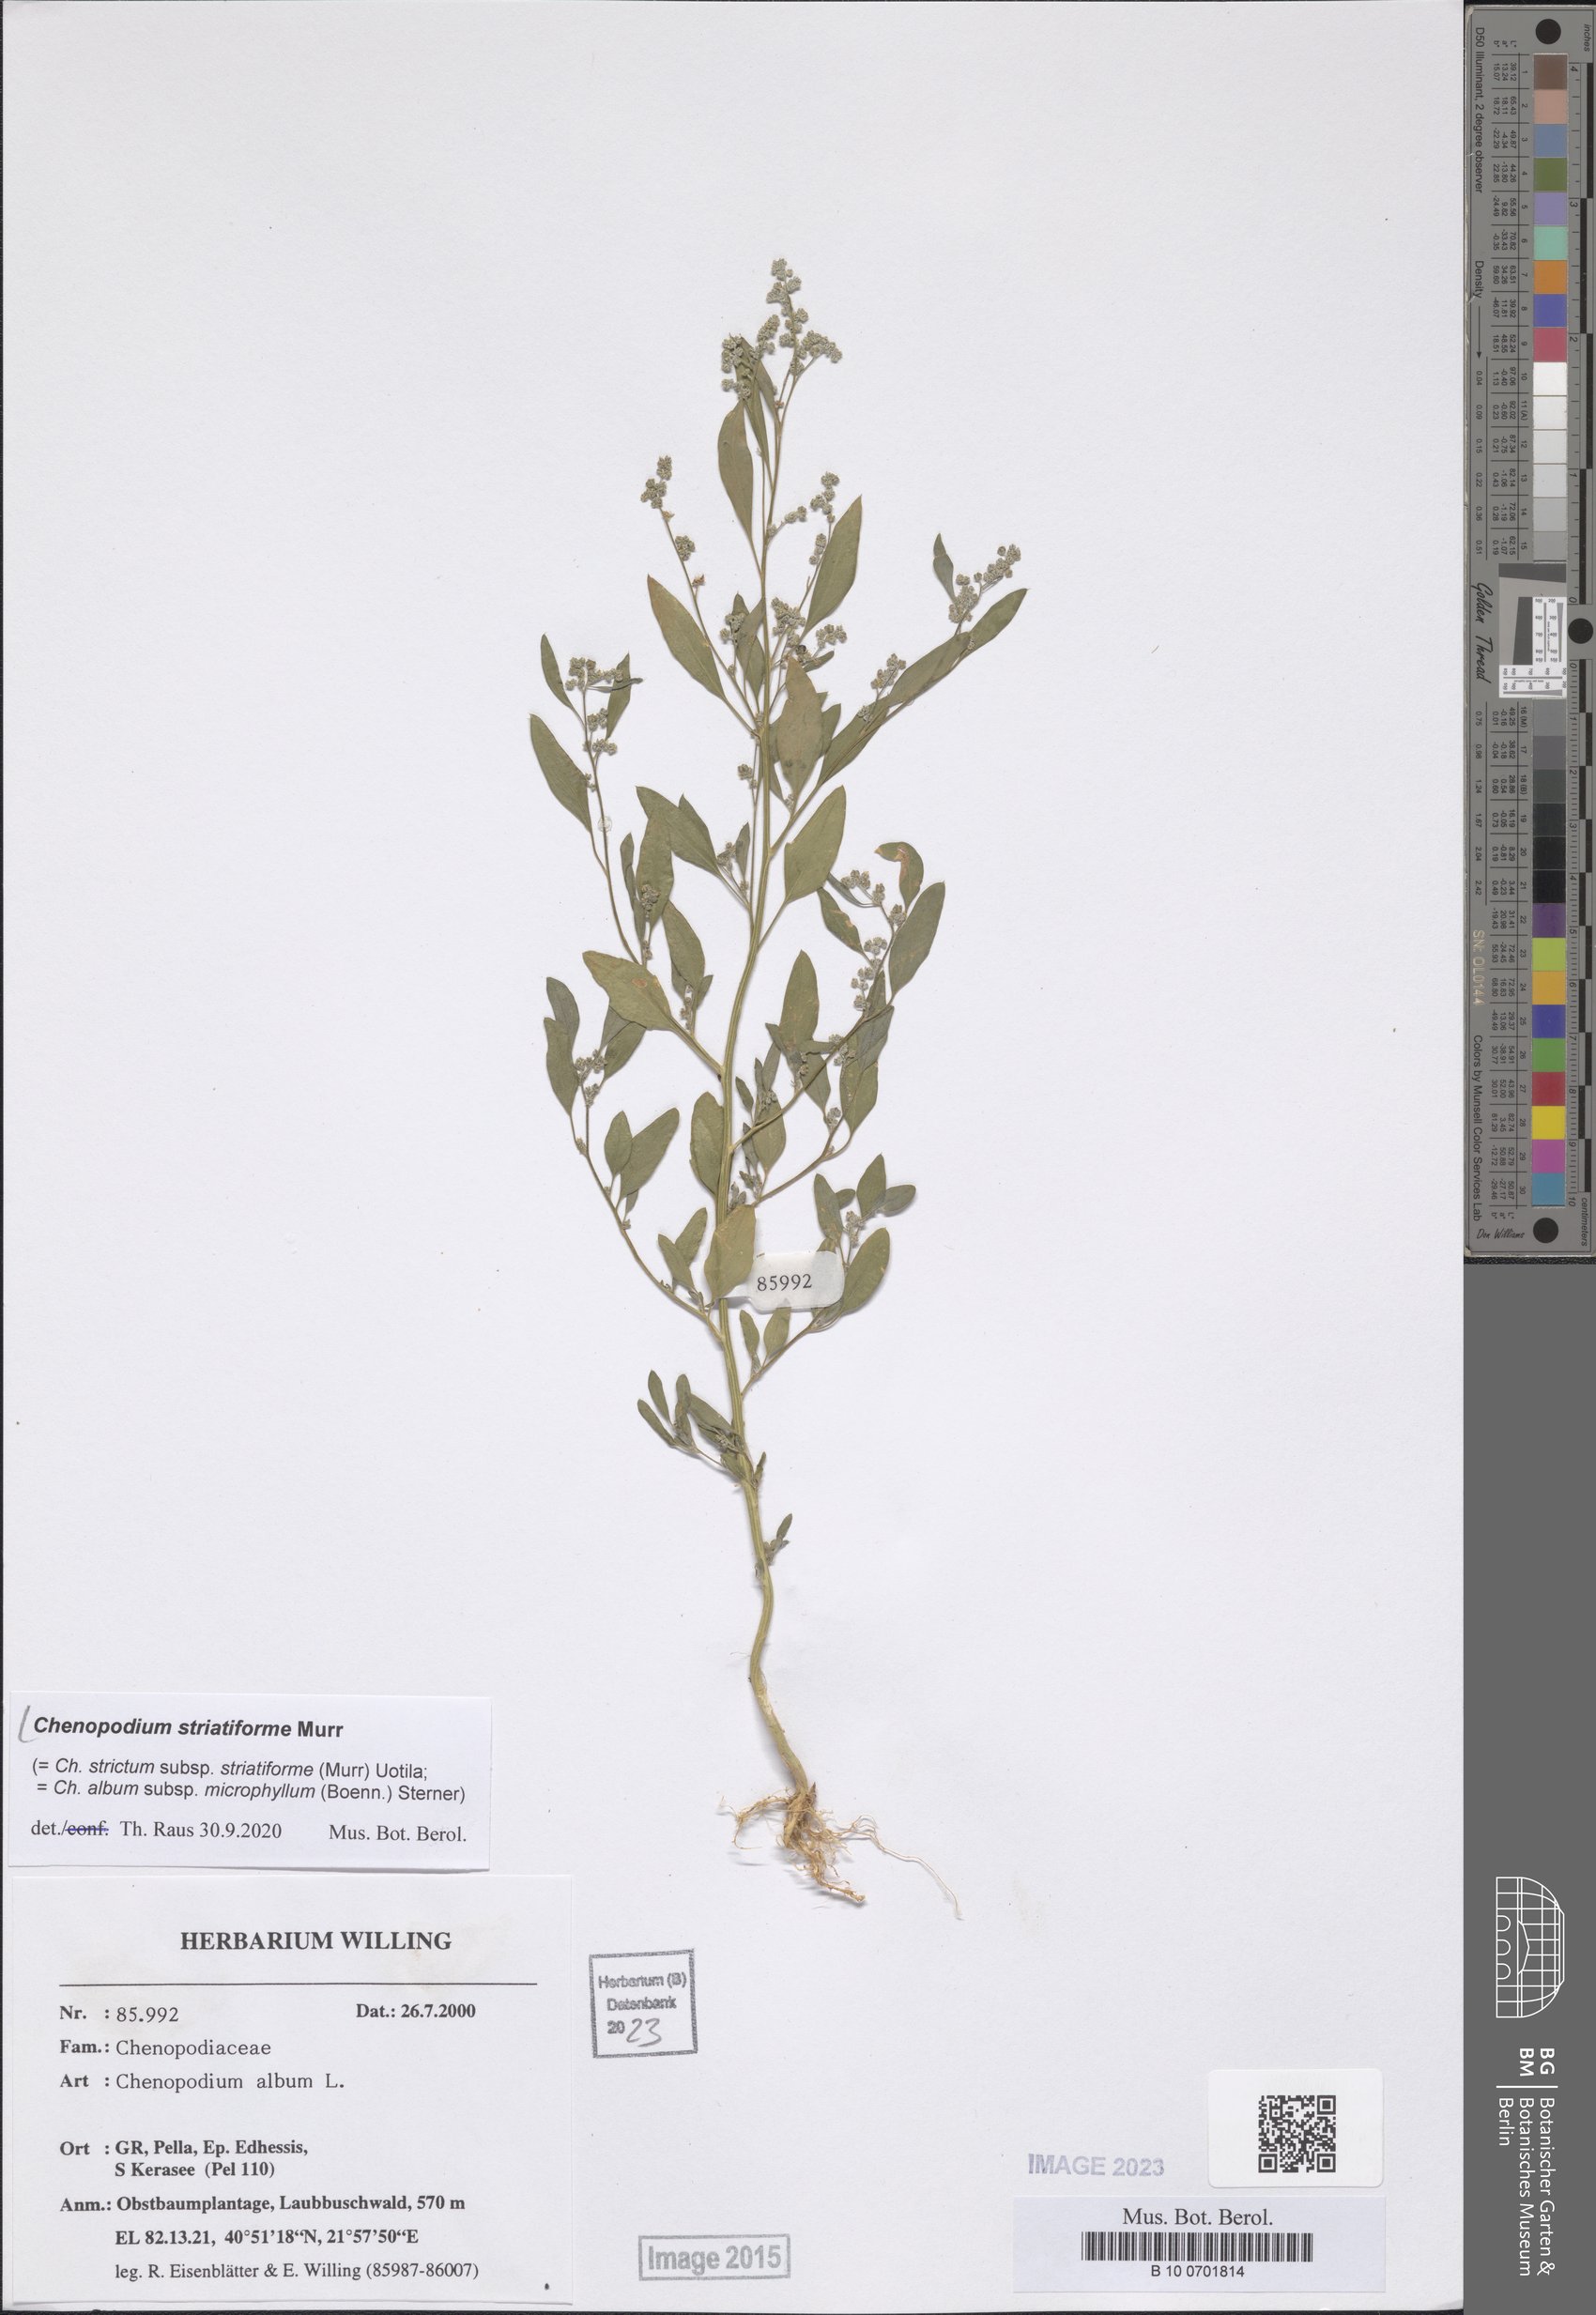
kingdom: Plantae
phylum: Tracheophyta
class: Magnoliopsida
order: Caryophyllales
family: Amaranthaceae
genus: Chenopodium
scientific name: Chenopodium striatiforme
